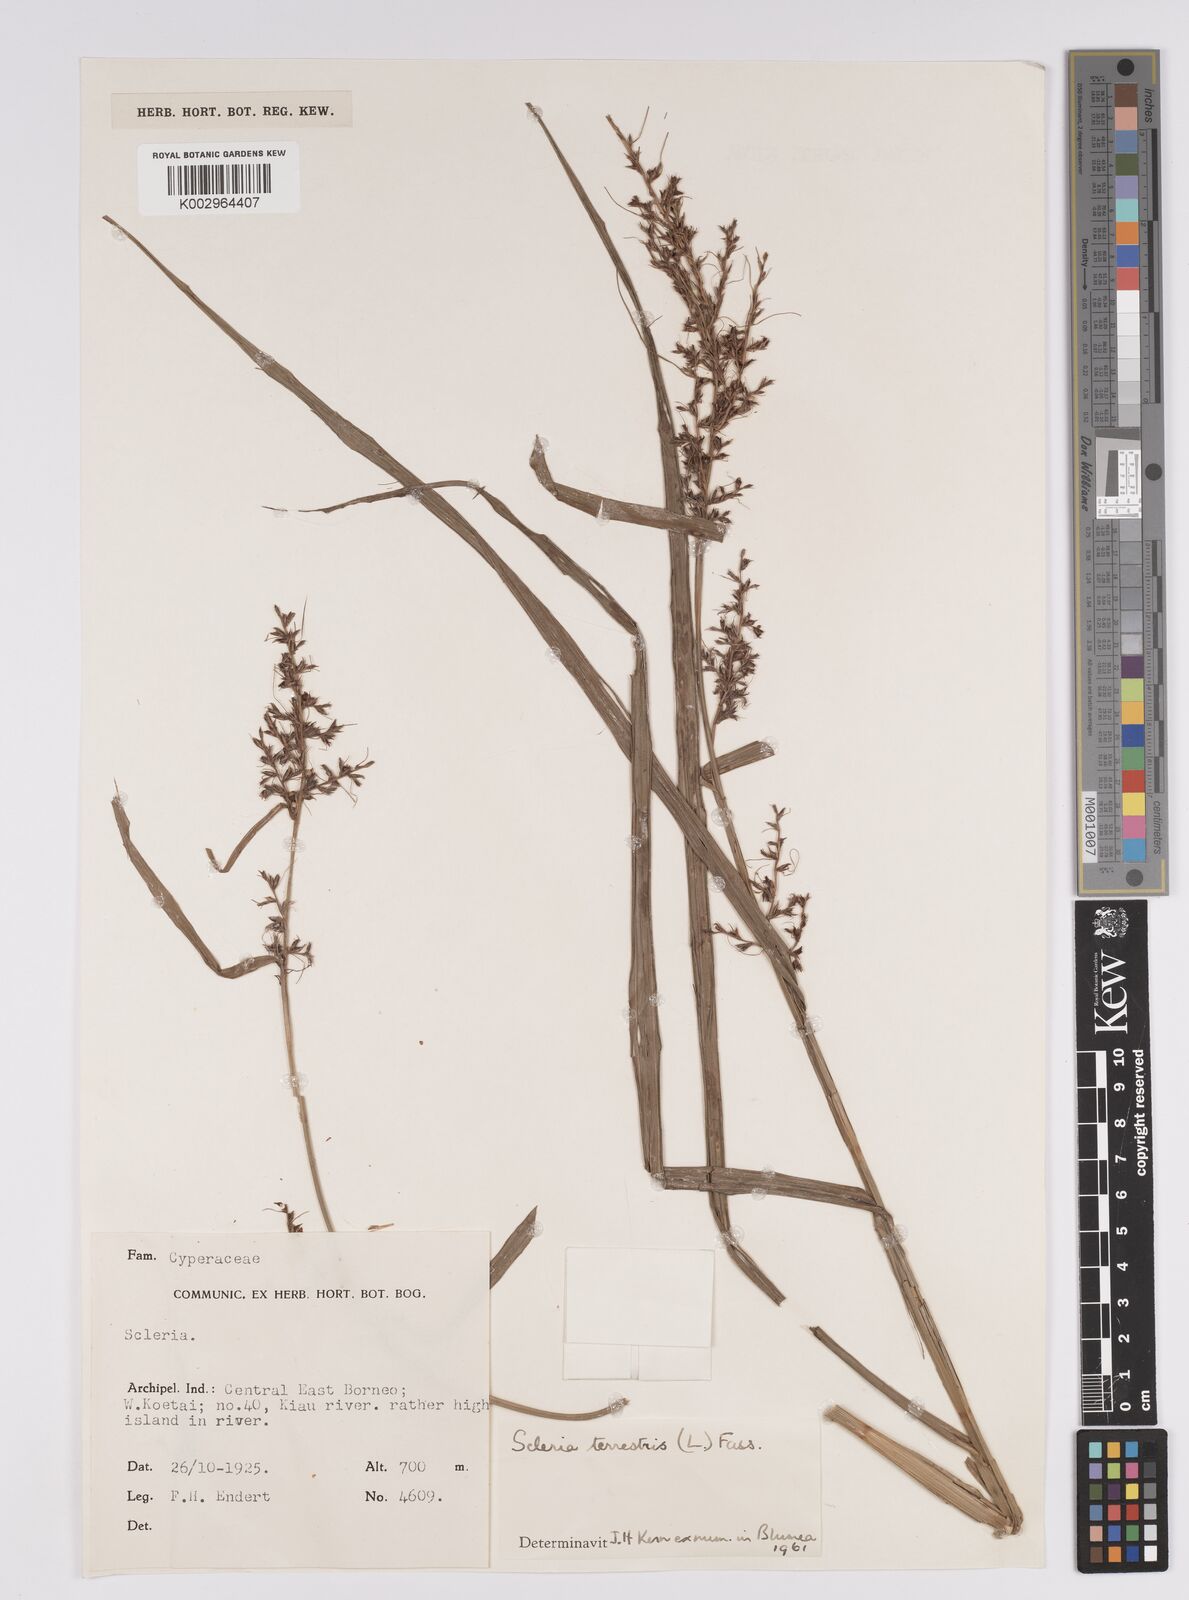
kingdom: Plantae
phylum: Tracheophyta
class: Liliopsida
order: Poales
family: Cyperaceae
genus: Scleria
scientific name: Scleria terrestris
